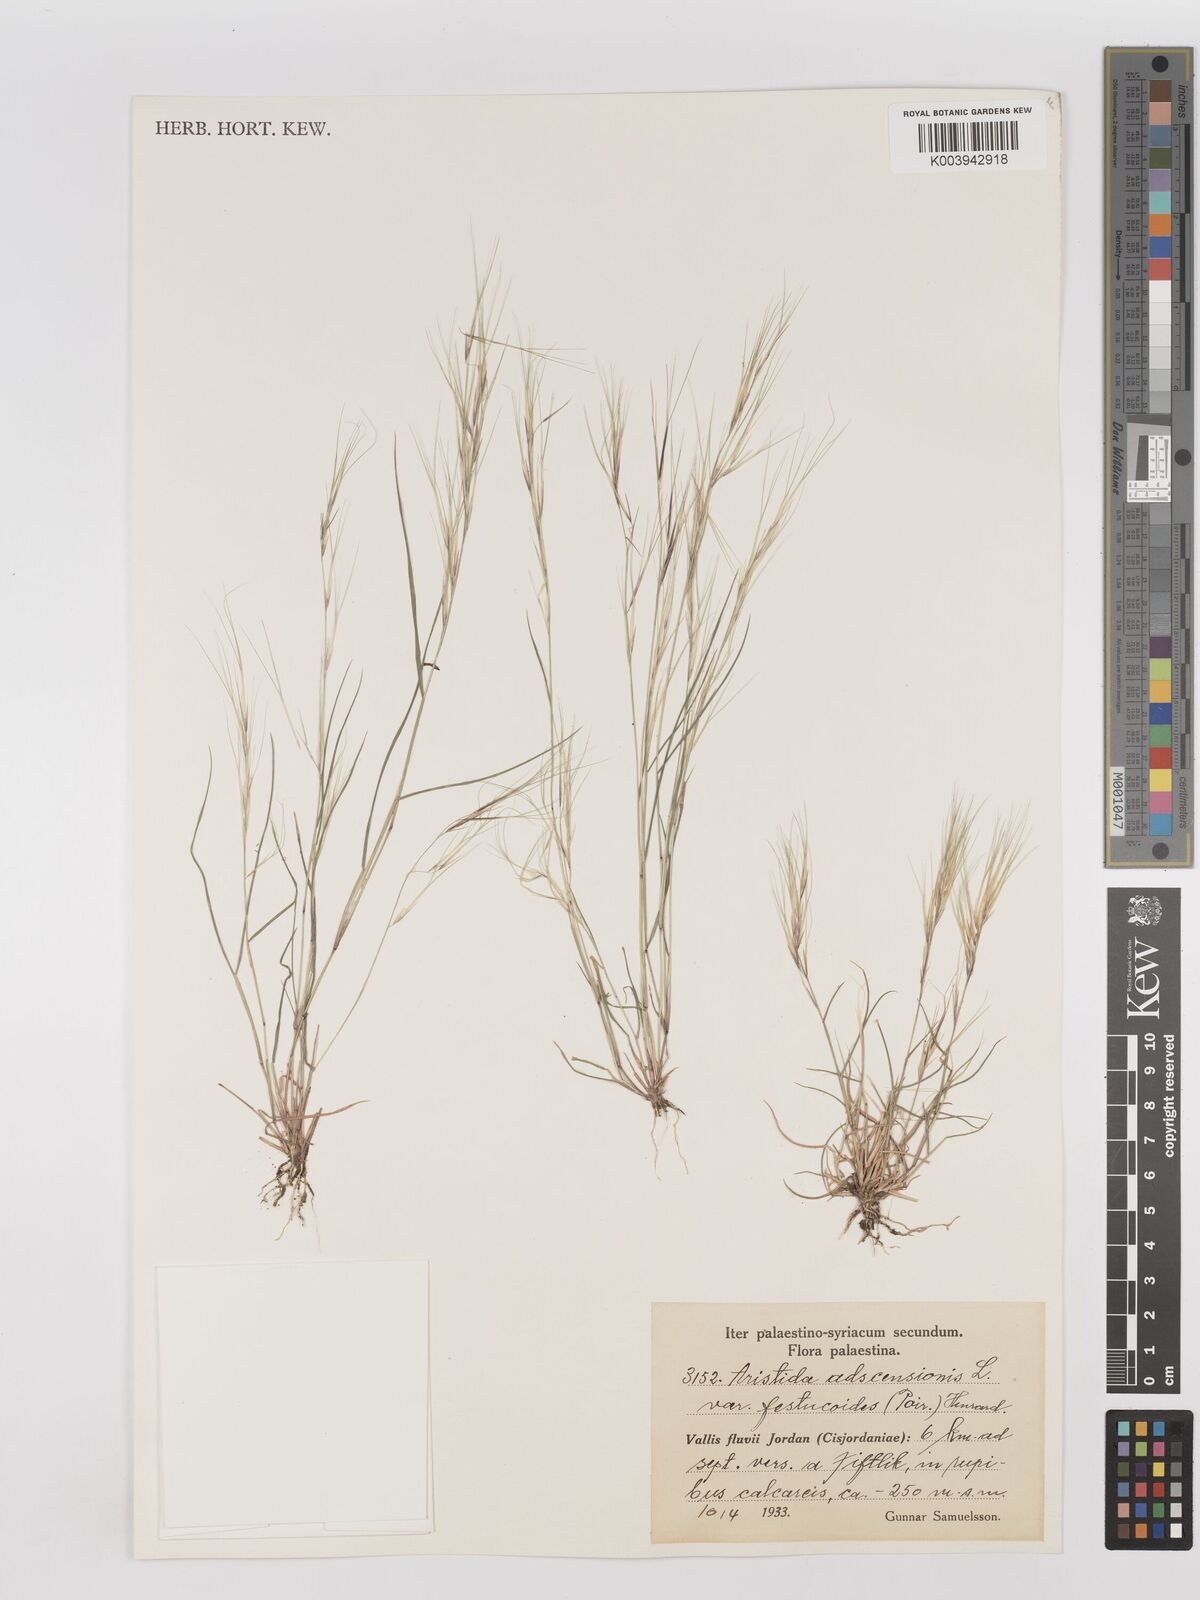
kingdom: Plantae
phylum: Tracheophyta
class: Liliopsida
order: Poales
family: Poaceae
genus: Aristida
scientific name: Aristida adscensionis
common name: Sixweeks threeawn
